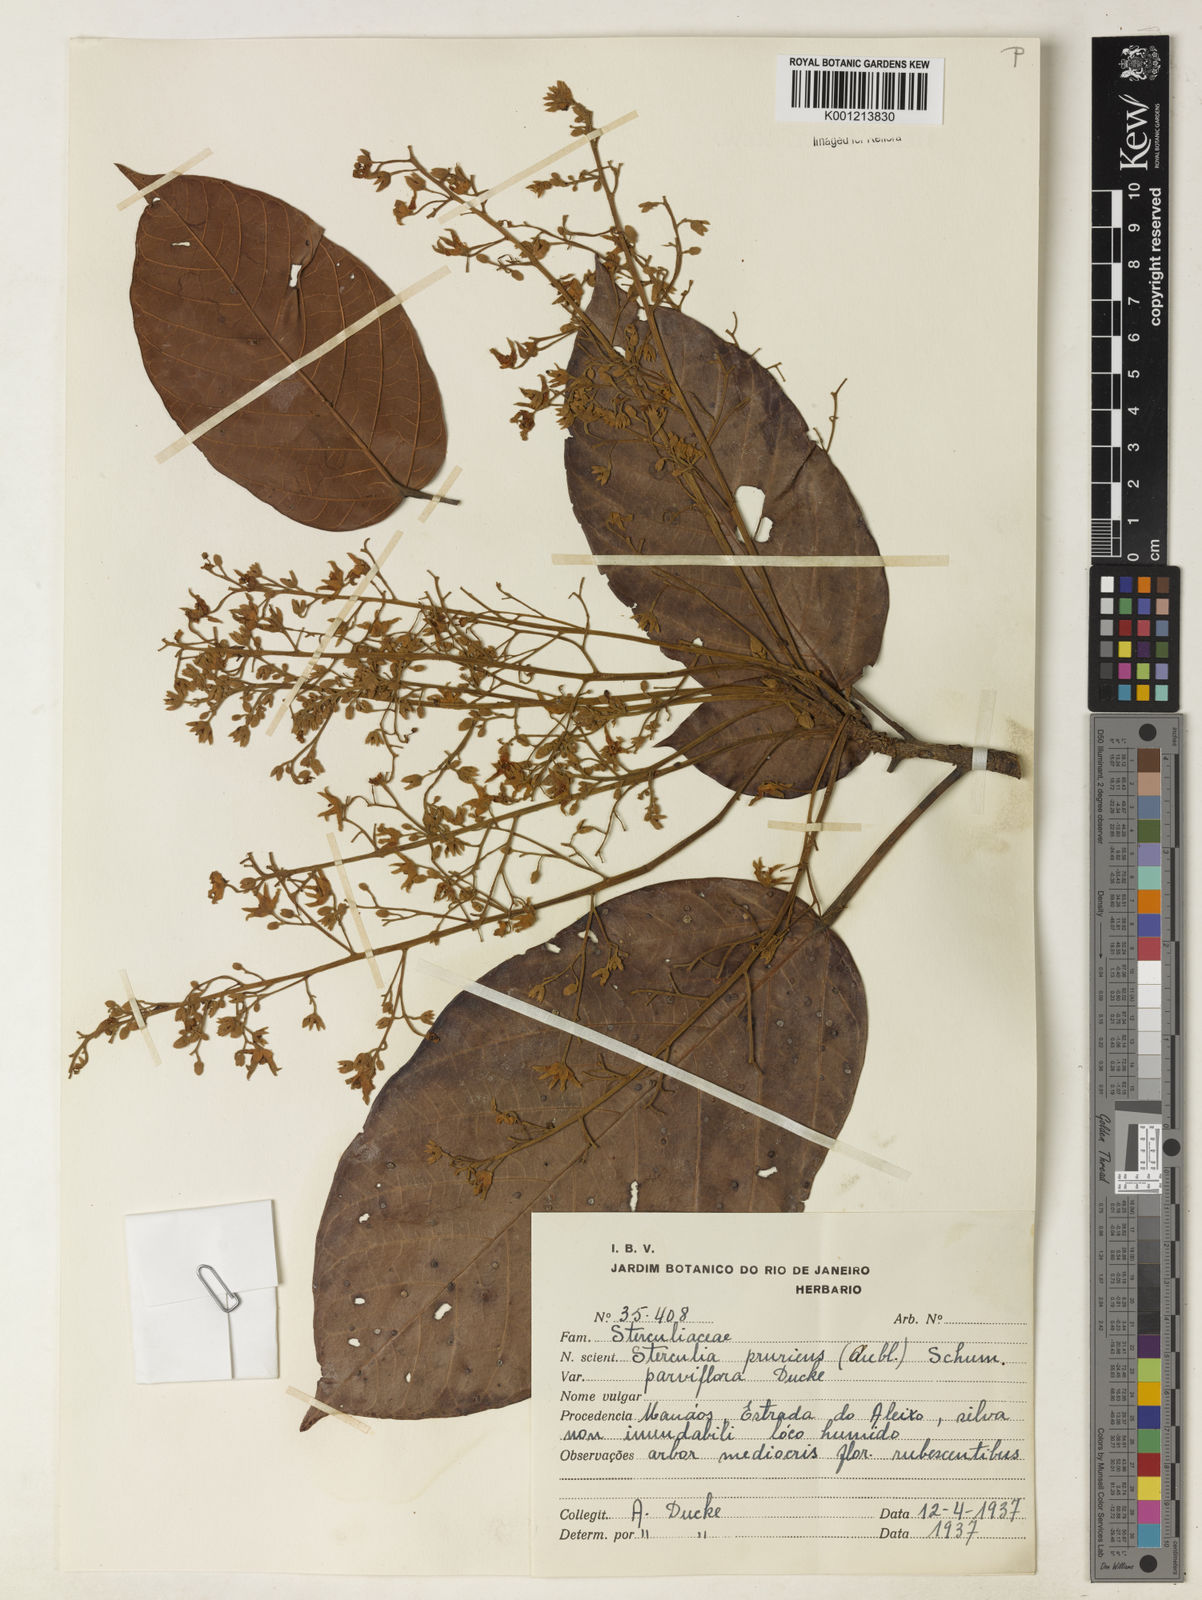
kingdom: Plantae
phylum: Tracheophyta
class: Magnoliopsida
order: Malvales
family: Malvaceae
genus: Sterculia
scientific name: Sterculia pruriens
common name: Grand mahot
